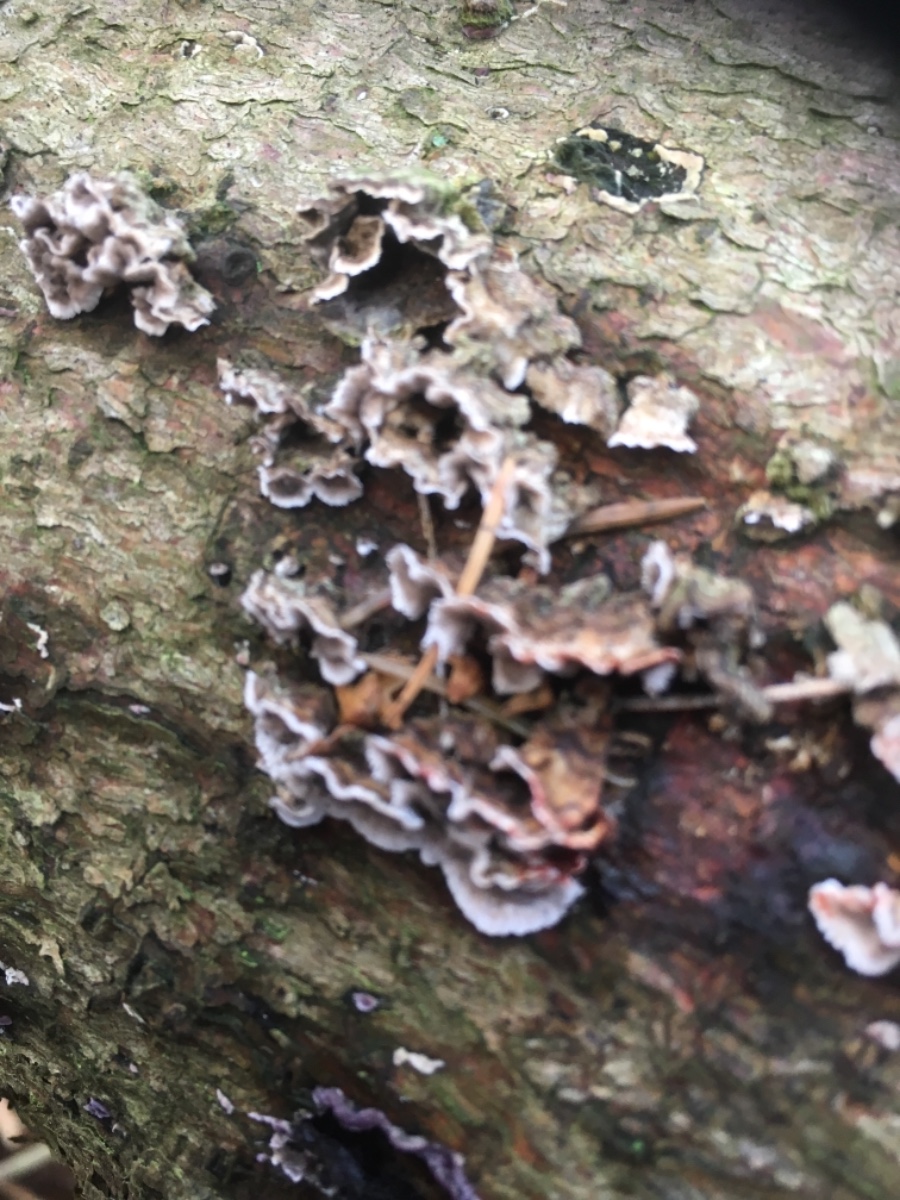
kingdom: Fungi
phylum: Basidiomycota
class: Agaricomycetes
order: Russulales
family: Stereaceae
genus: Stereum
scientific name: Stereum sanguinolentum
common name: blødende lædersvamp
